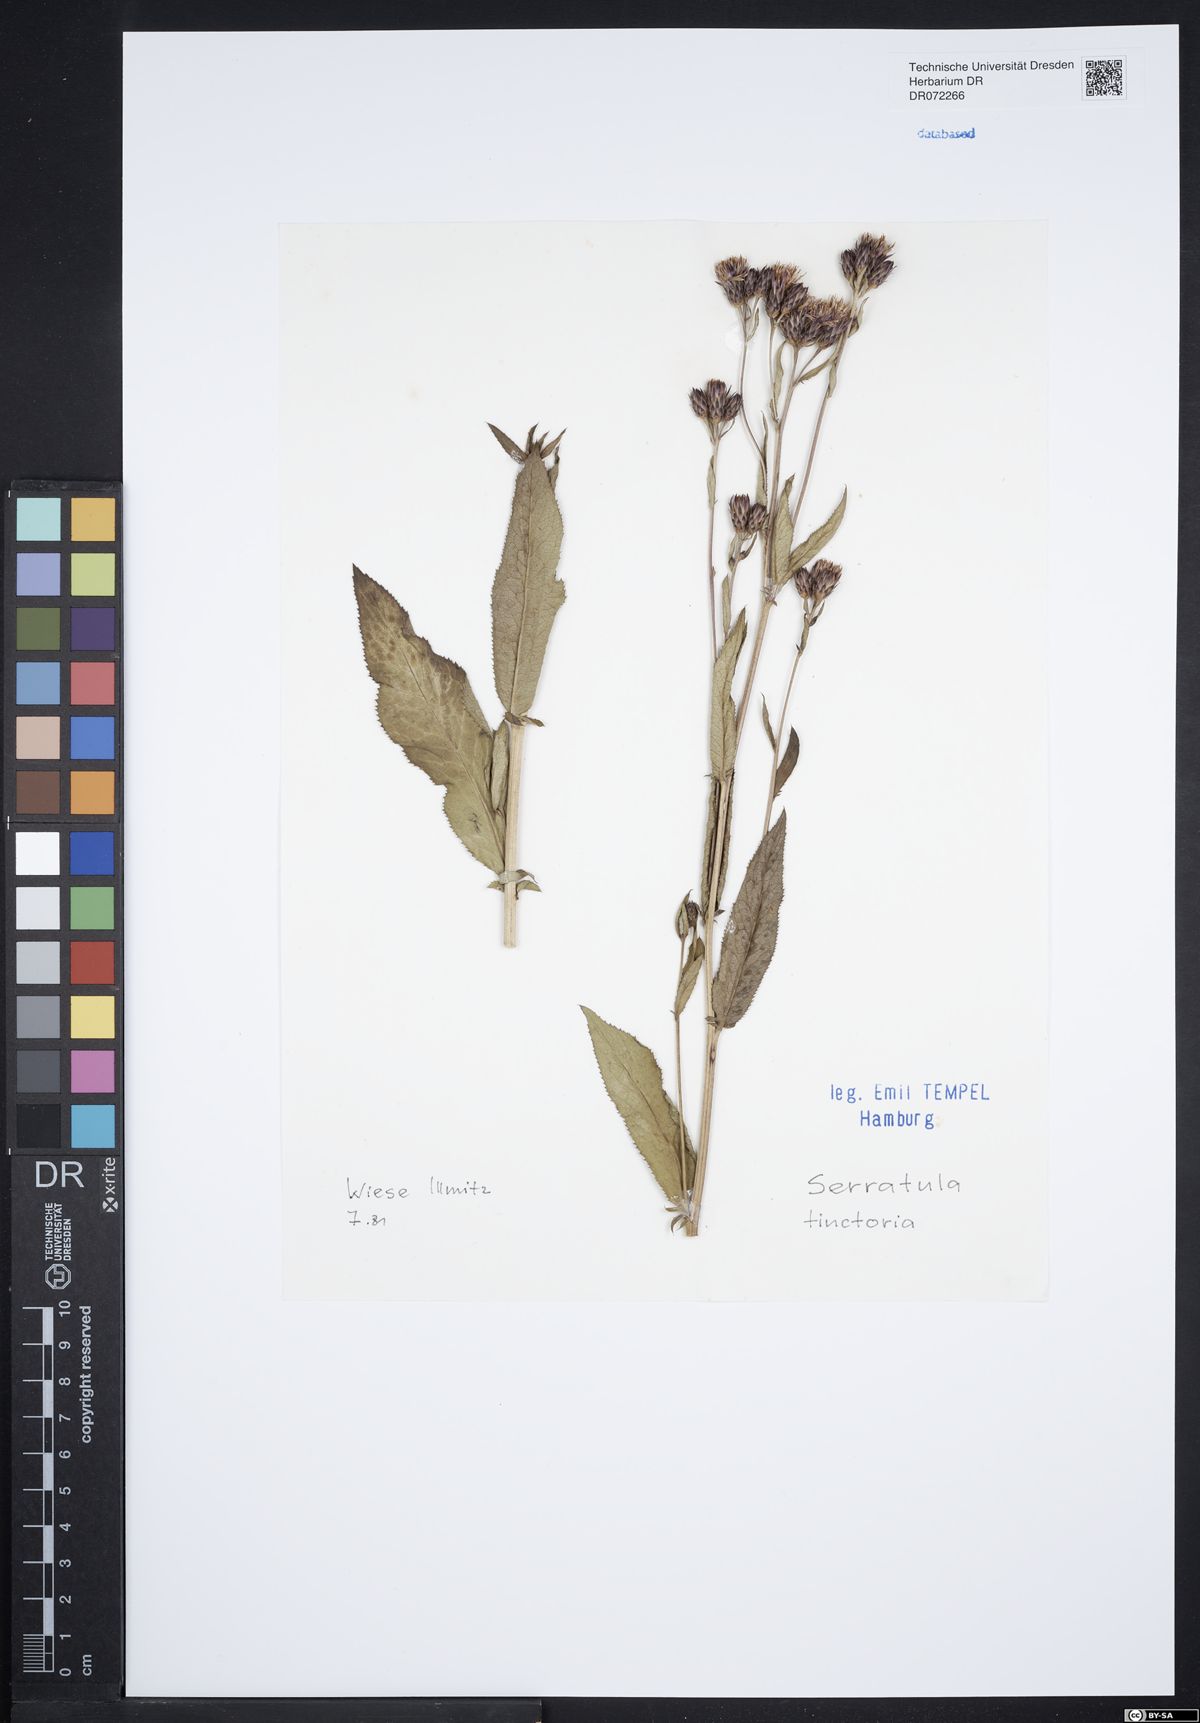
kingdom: Plantae
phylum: Tracheophyta
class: Magnoliopsida
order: Asterales
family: Asteraceae
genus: Serratula
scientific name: Serratula tinctoria
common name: Saw-wort
